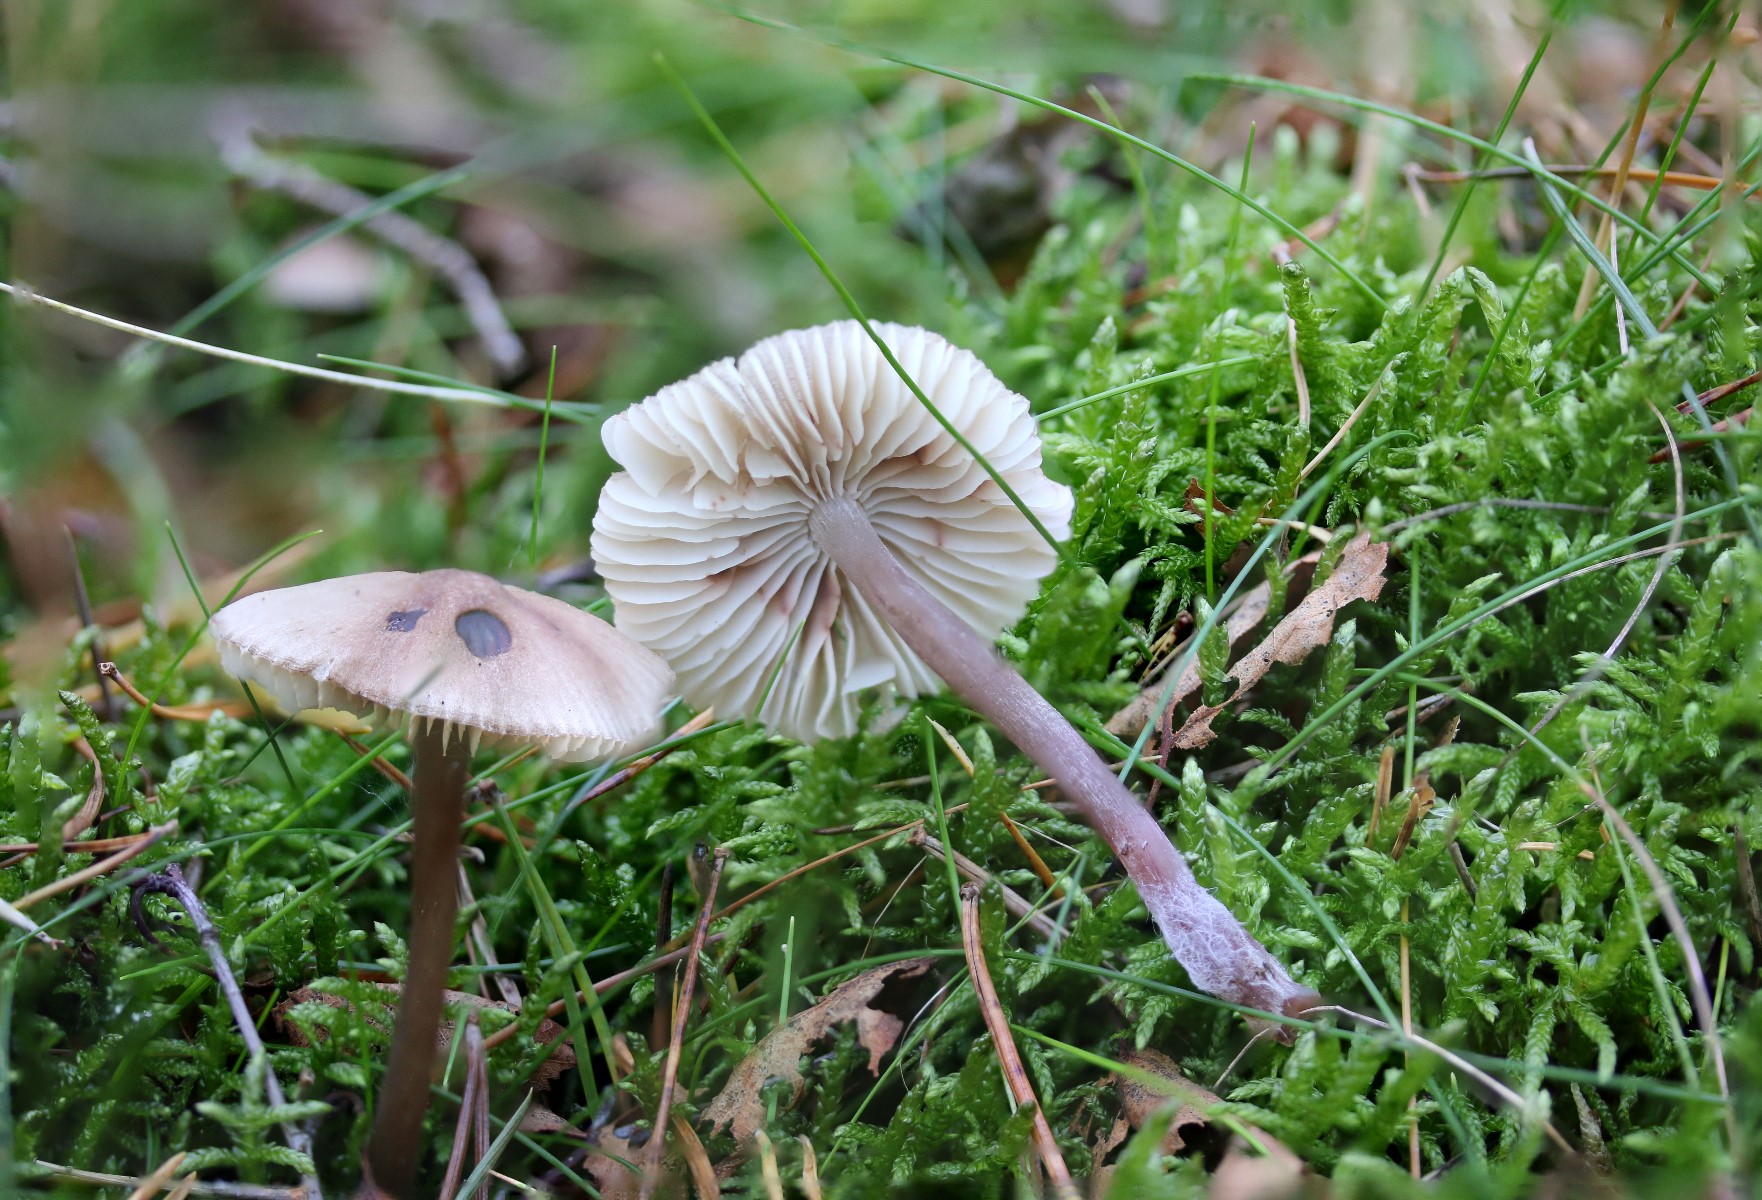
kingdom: Fungi
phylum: Basidiomycota
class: Agaricomycetes
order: Agaricales
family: Mycenaceae
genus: Mycena
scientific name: Mycena maculata
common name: rødplettet huesvamp
